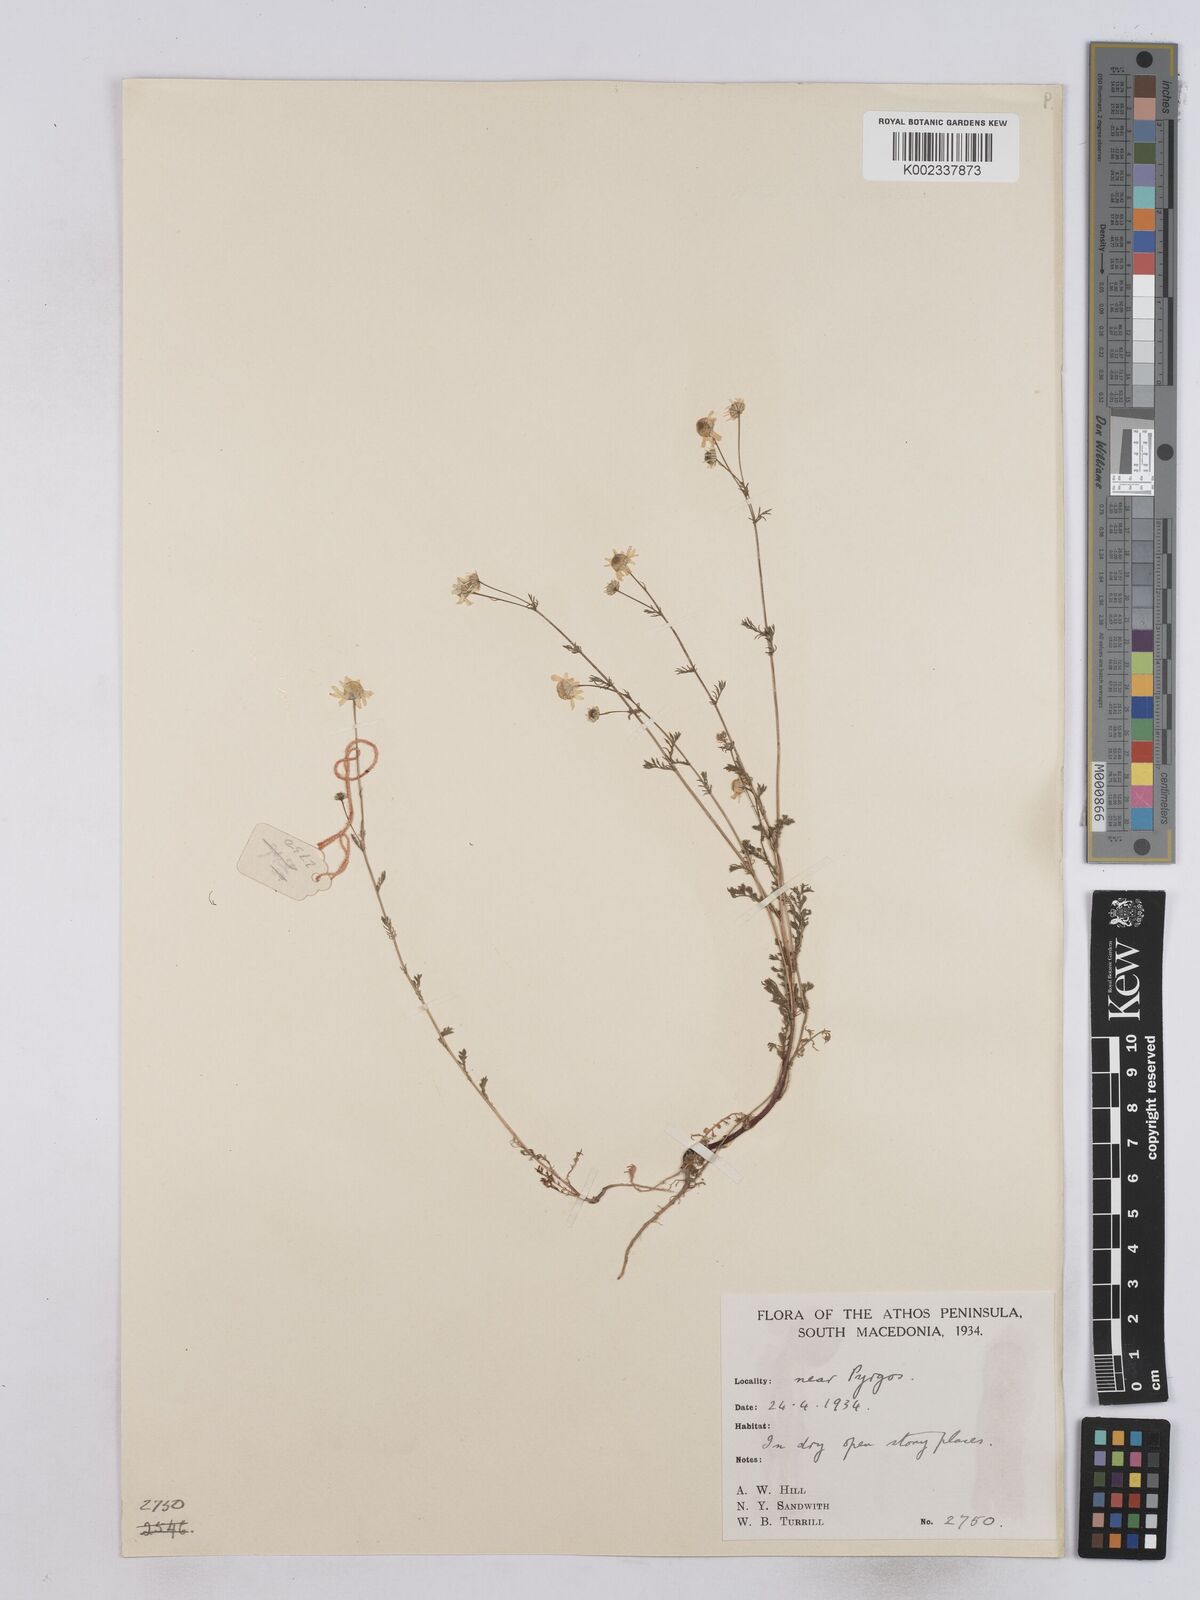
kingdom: Plantae
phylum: Tracheophyta
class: Magnoliopsida
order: Asterales
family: Asteraceae
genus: Matricaria
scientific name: Matricaria chamomilla
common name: Scented mayweed
